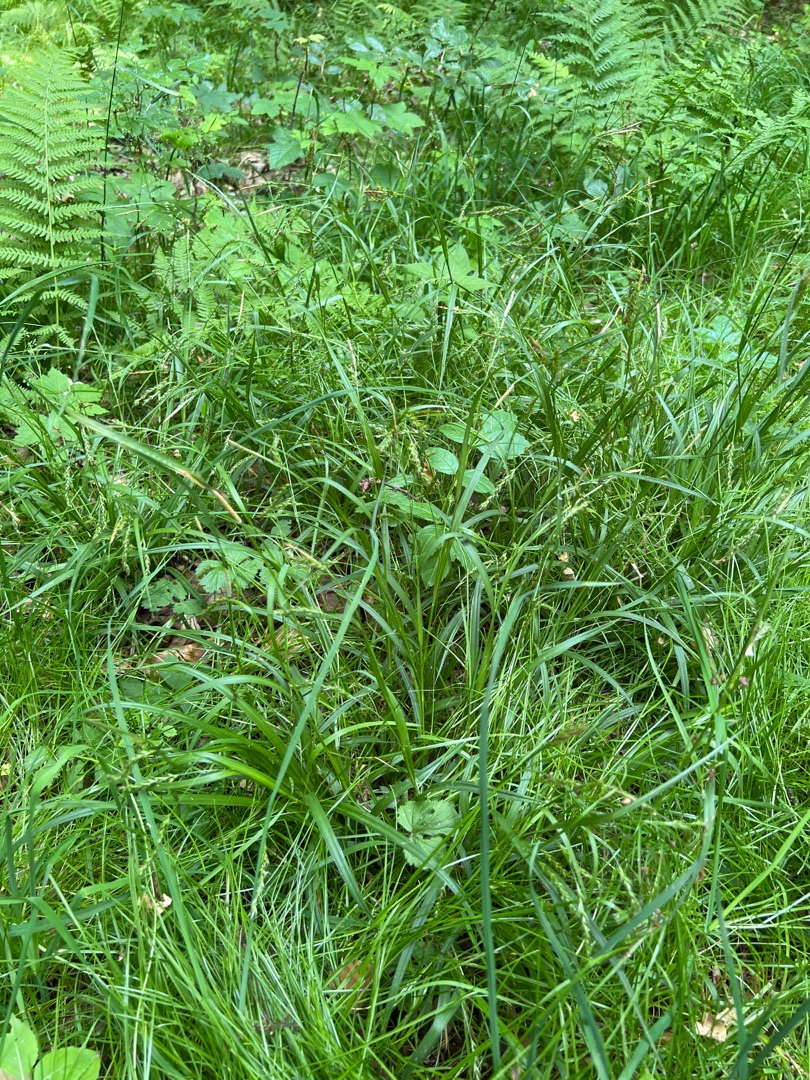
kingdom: Plantae
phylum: Tracheophyta
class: Liliopsida
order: Poales
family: Cyperaceae
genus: Carex
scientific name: Carex sylvatica
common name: Skov-star
